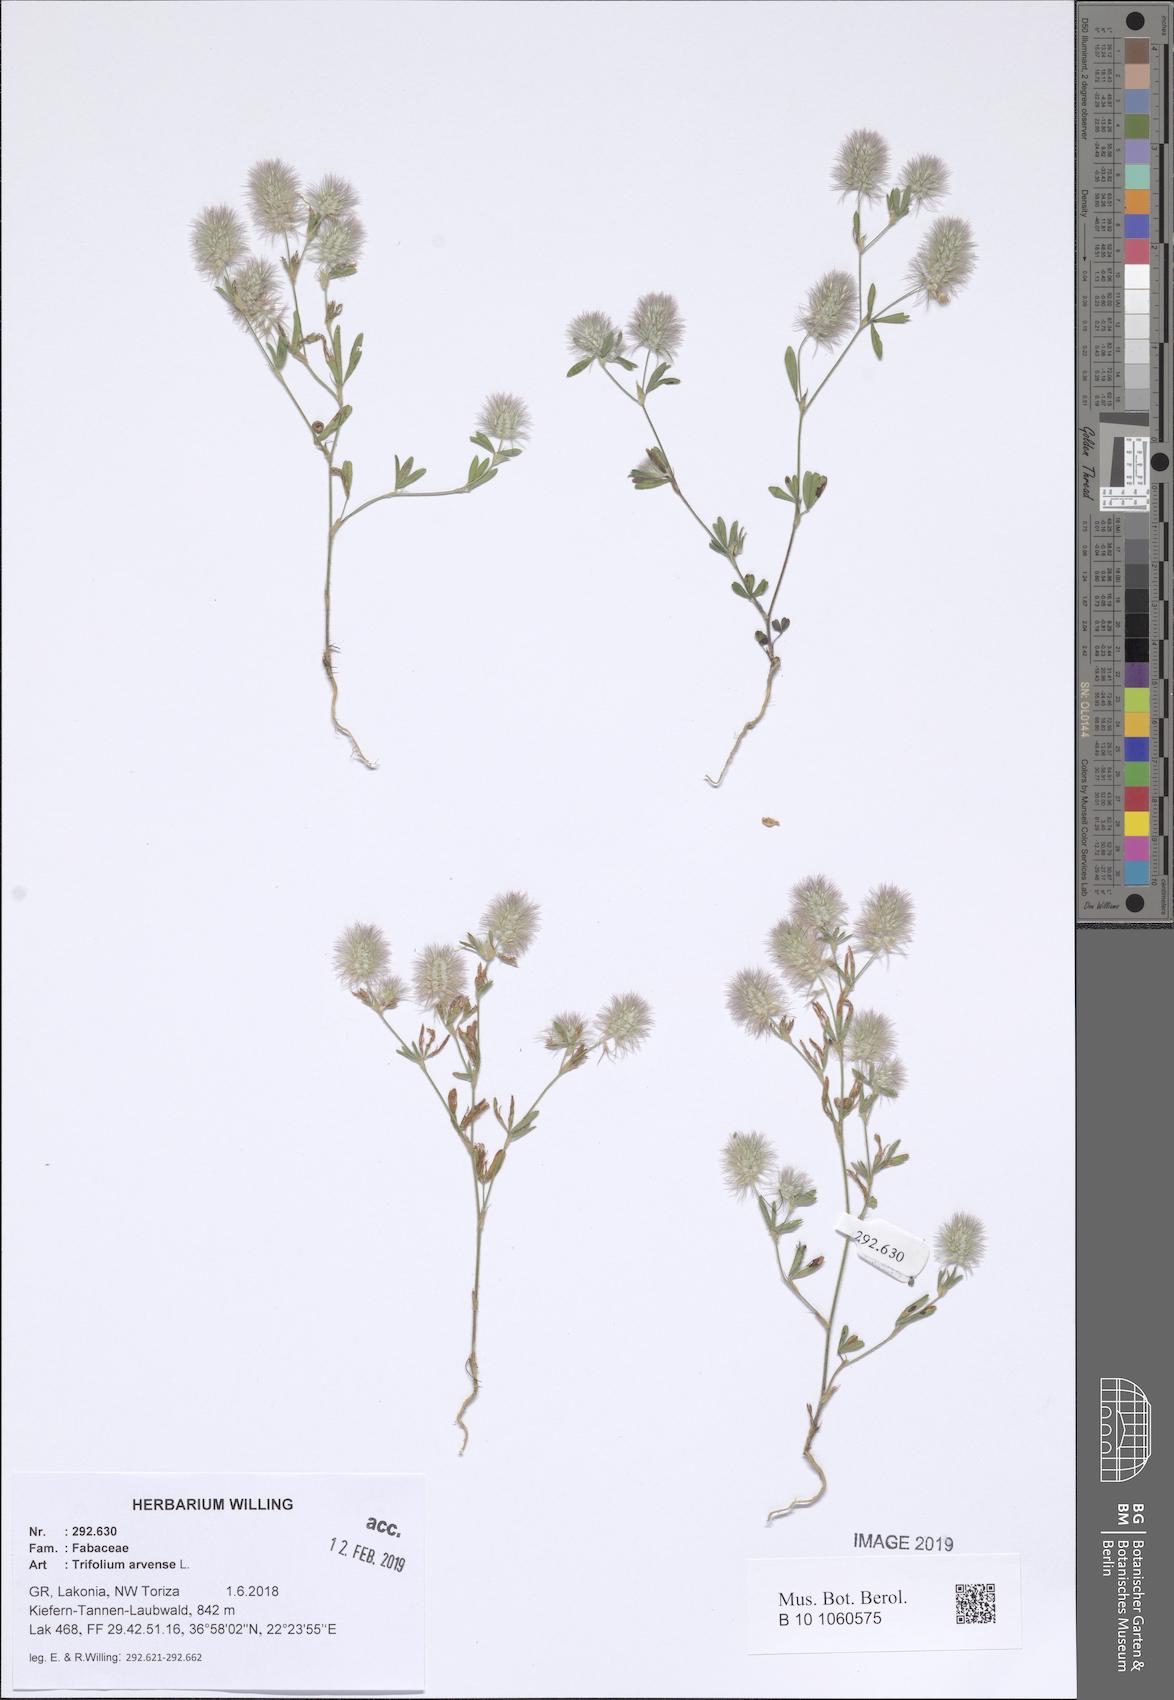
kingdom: Plantae
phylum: Tracheophyta
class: Magnoliopsida
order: Fabales
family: Fabaceae
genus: Trifolium
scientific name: Trifolium arvense
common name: Hare's-foot clover
